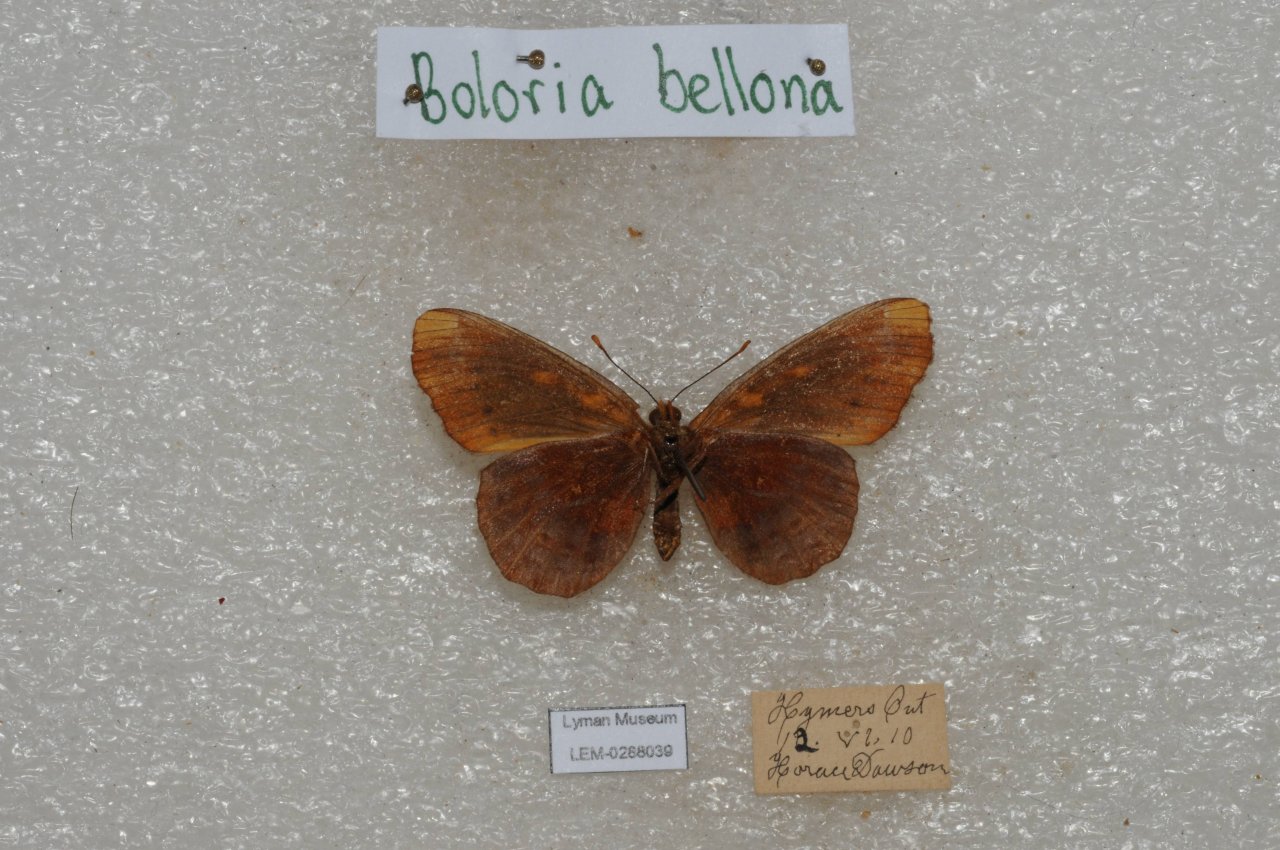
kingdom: Animalia
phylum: Arthropoda
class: Insecta
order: Lepidoptera
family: Nymphalidae
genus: Clossiana
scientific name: Clossiana toddi
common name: Meadow Fritillary
